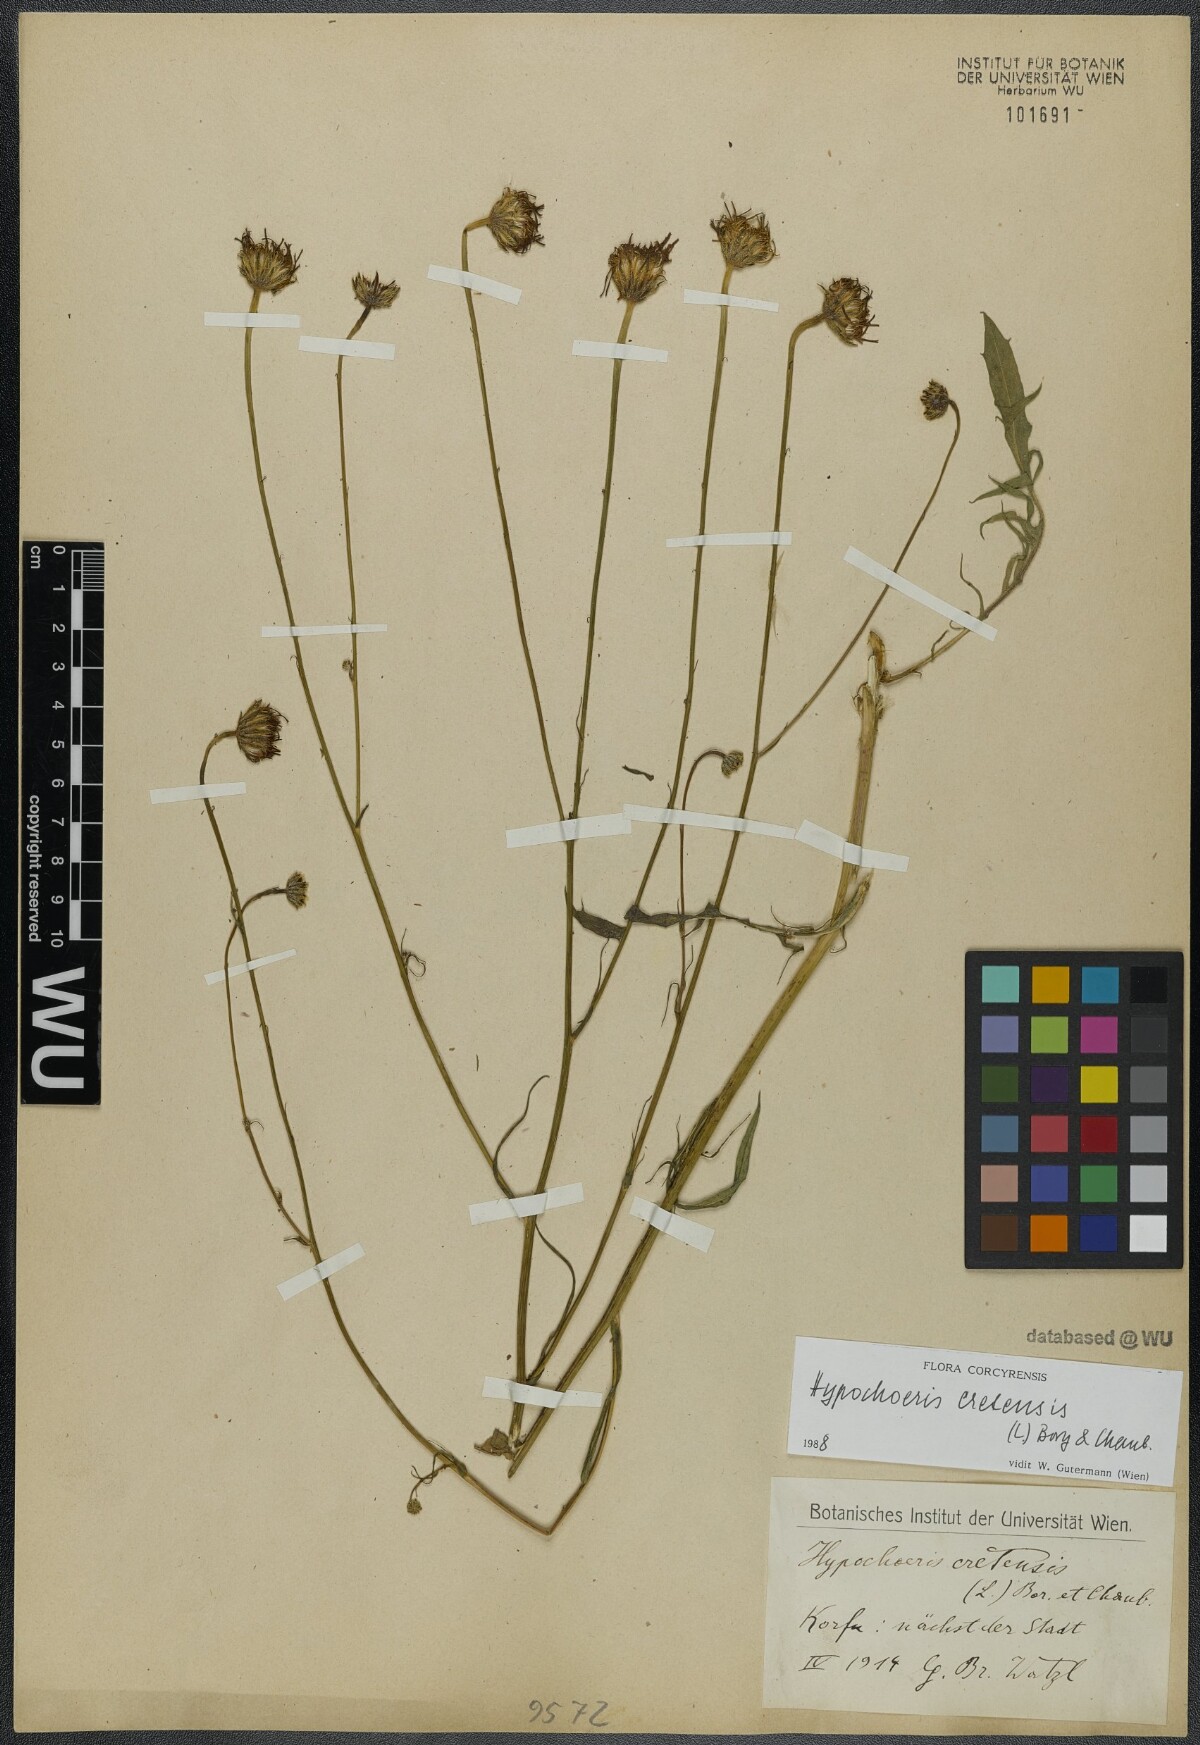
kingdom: Plantae
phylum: Tracheophyta
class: Magnoliopsida
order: Asterales
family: Asteraceae
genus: Hypochaeris
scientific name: Hypochaeris cretensis
